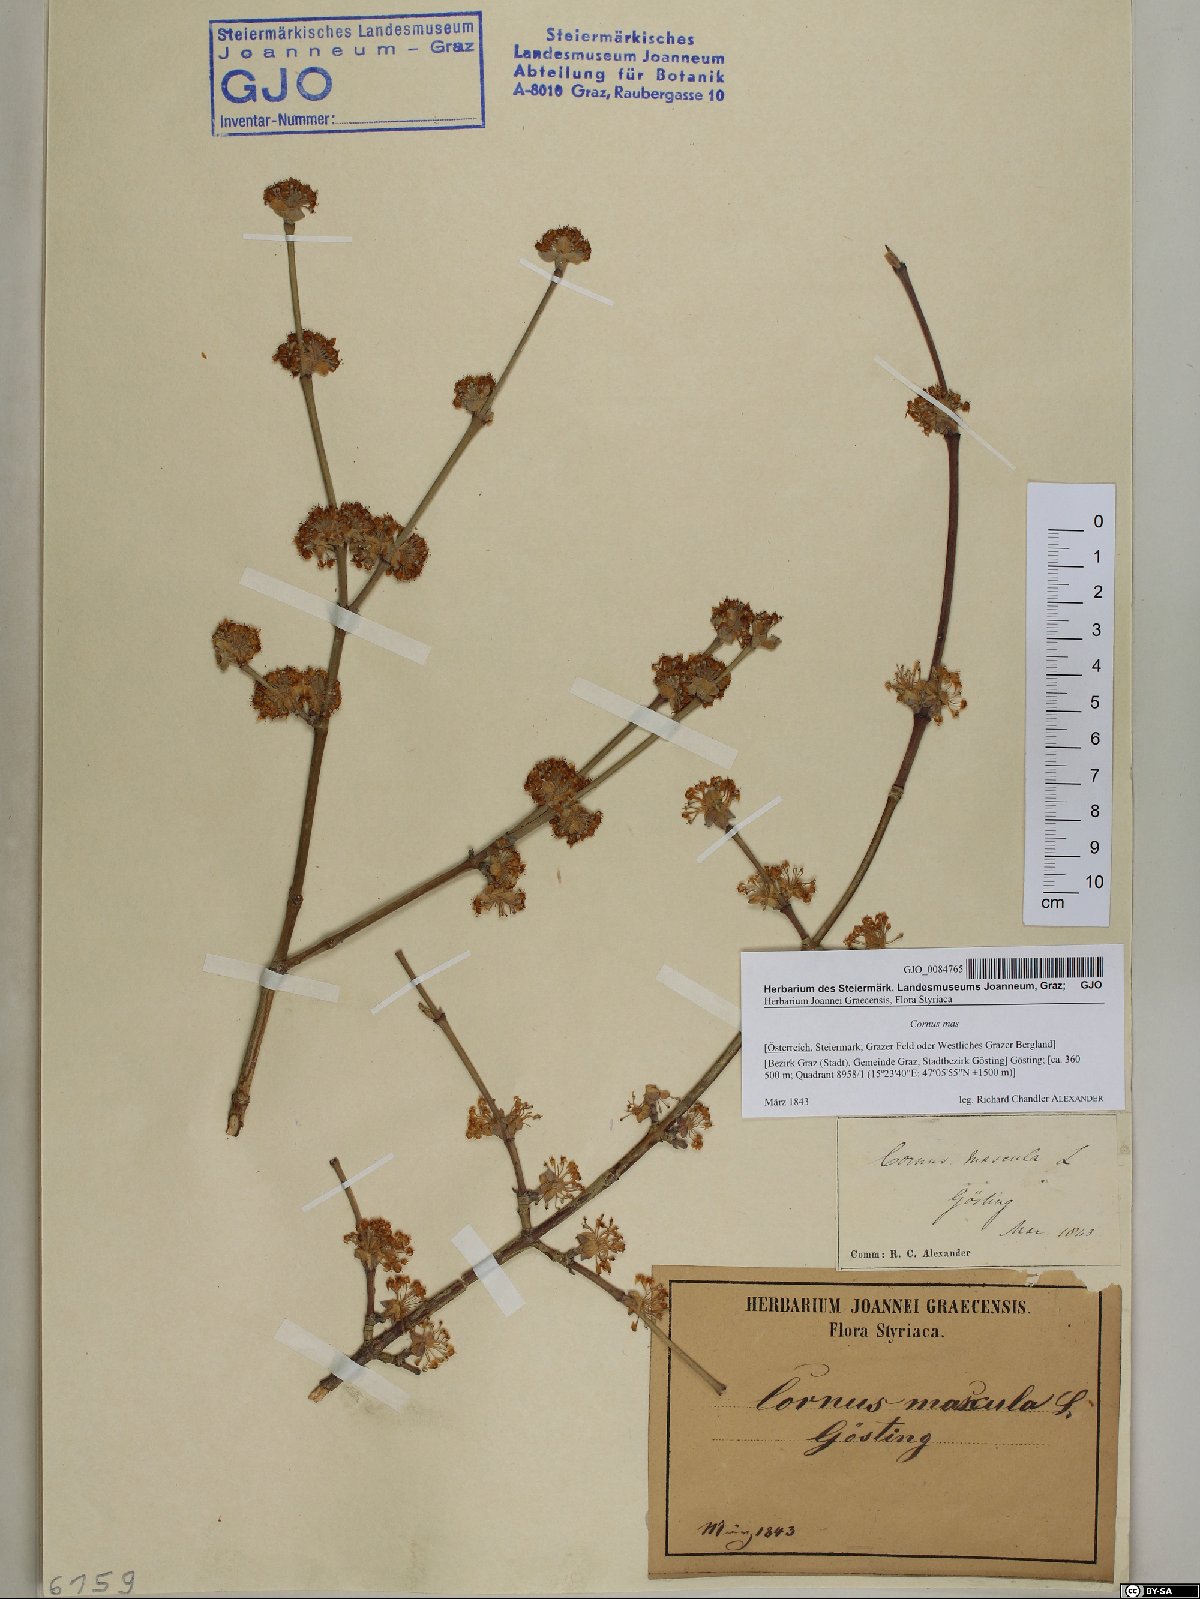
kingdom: Plantae
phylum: Tracheophyta
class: Magnoliopsida
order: Cornales
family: Cornaceae
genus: Cornus
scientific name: Cornus mas
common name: Cornelian-cherry
